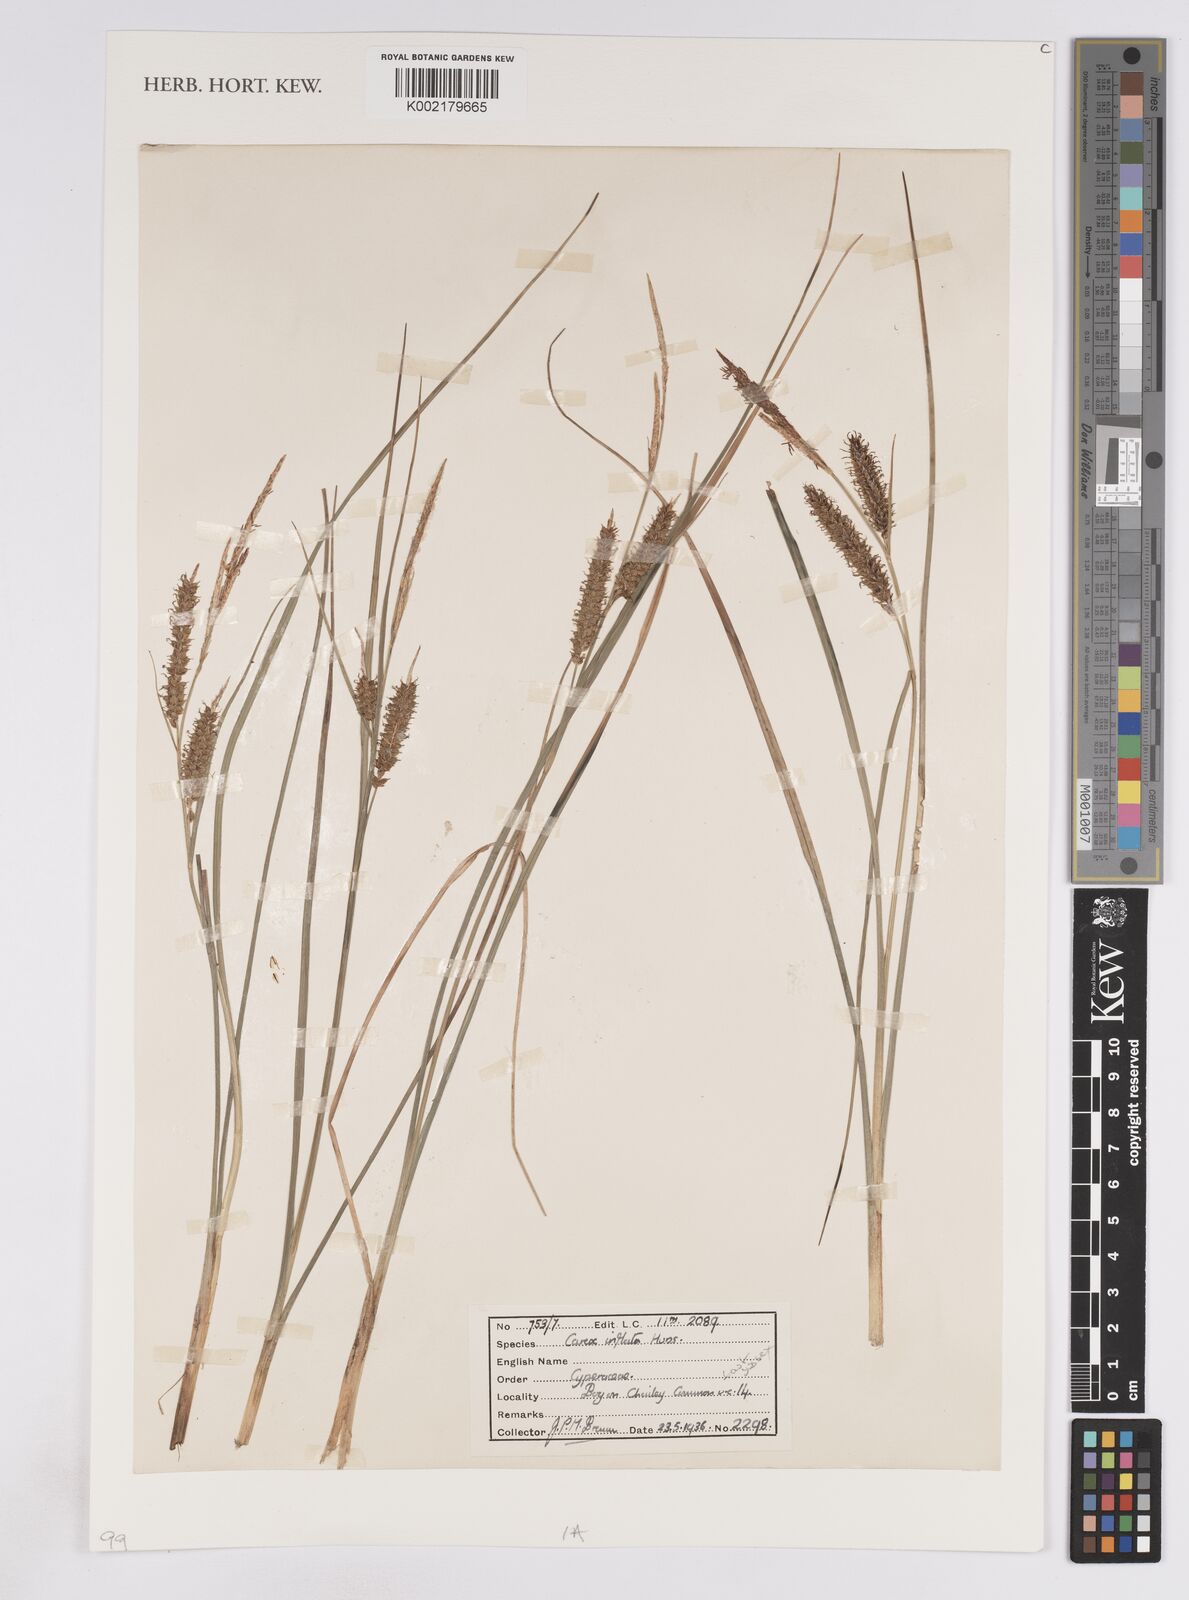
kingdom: Plantae
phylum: Tracheophyta
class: Liliopsida
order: Poales
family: Cyperaceae
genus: Carex
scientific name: Carex rostrata
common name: Bottle sedge
